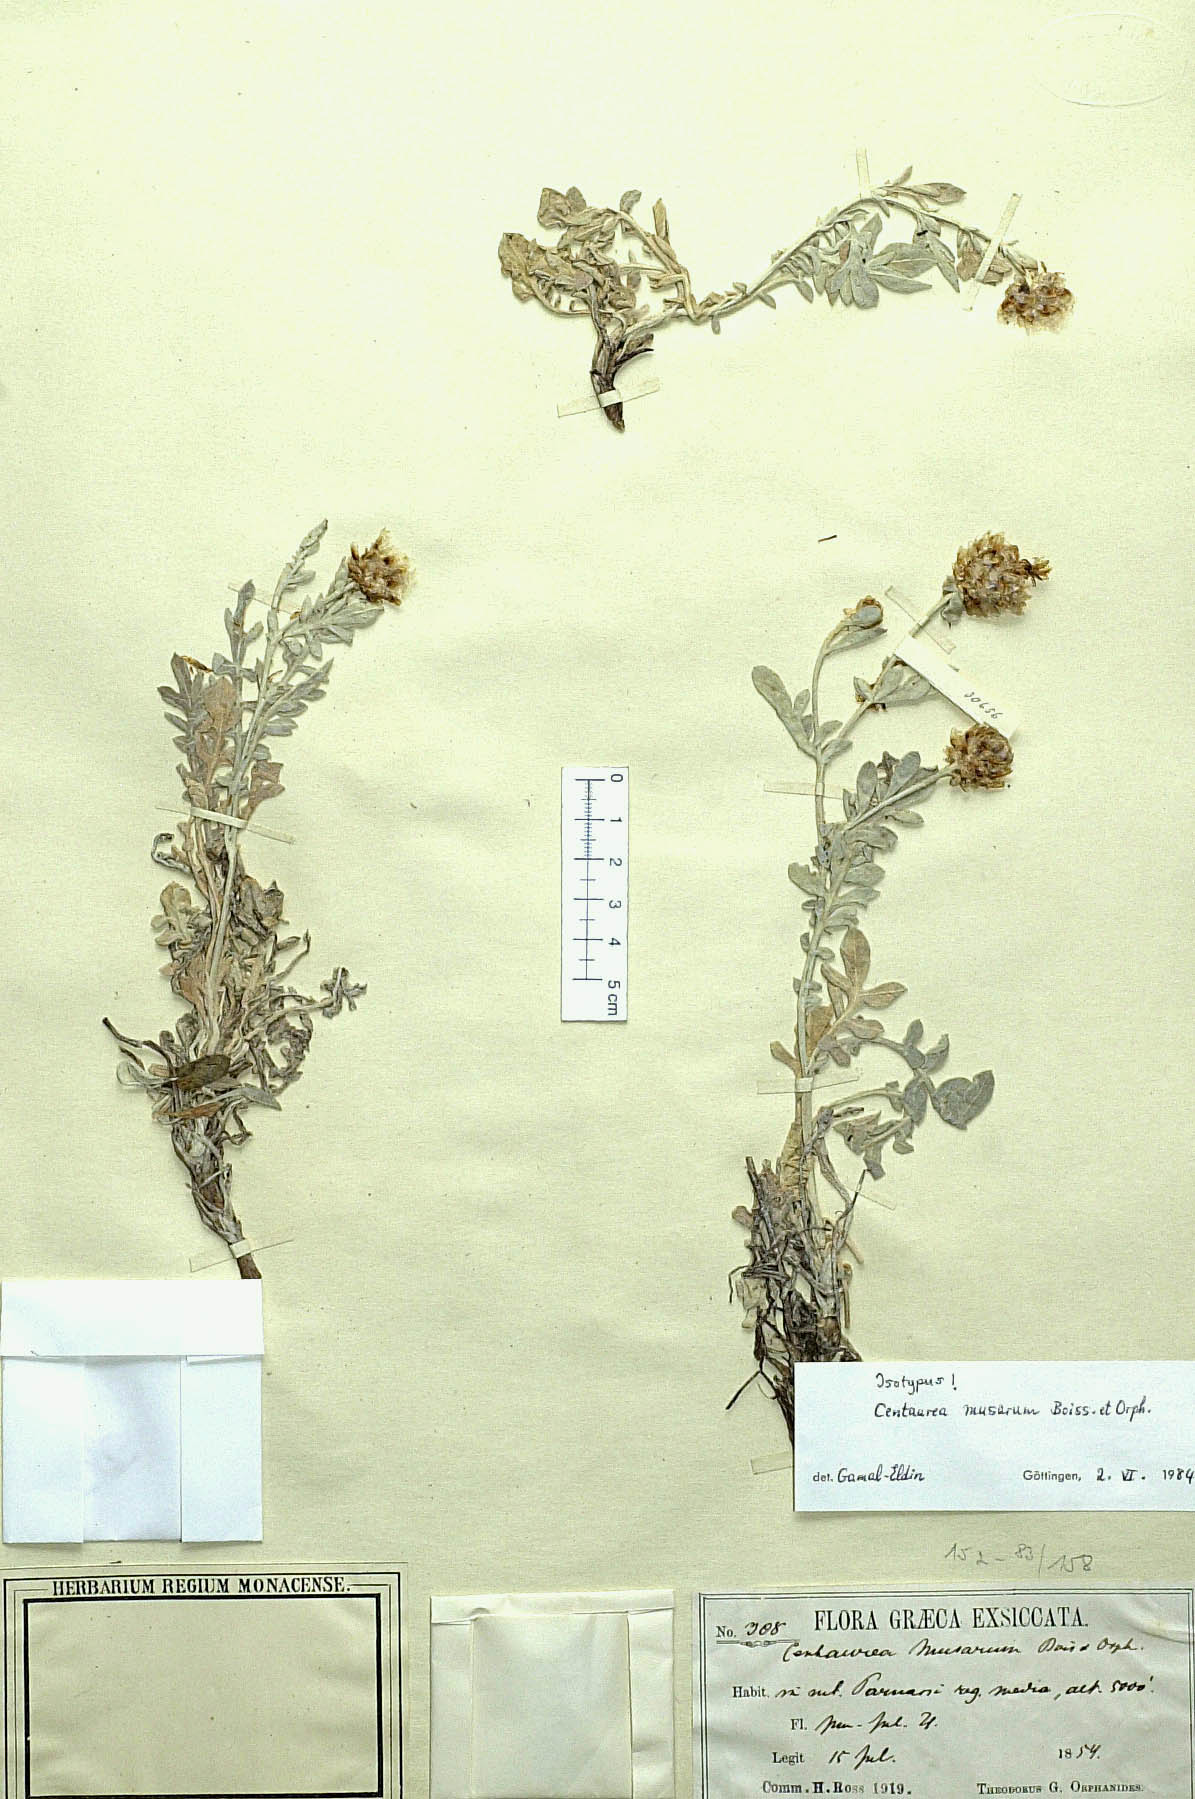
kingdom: Plantae
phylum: Tracheophyta
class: Magnoliopsida
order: Asterales
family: Asteraceae
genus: Centaurea
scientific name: Centaurea musarum
